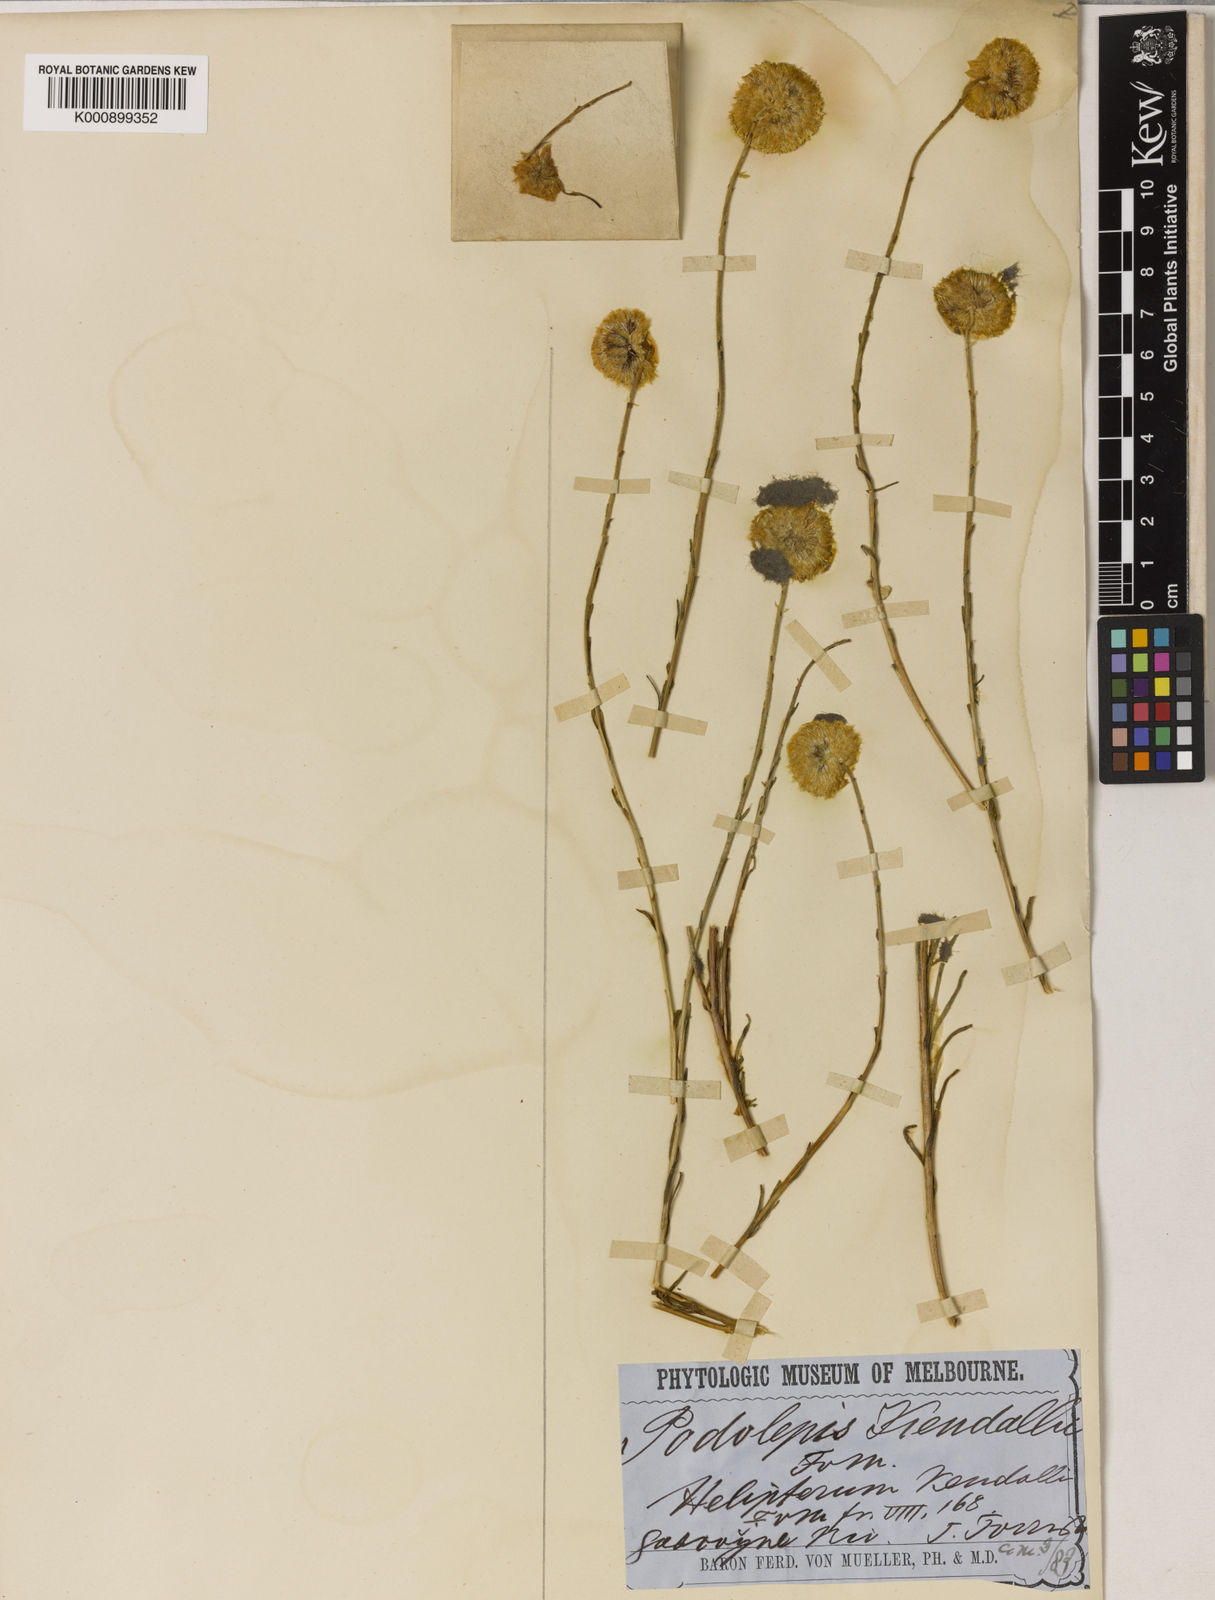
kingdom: Plantae
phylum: Tracheophyta
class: Magnoliopsida
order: Asterales
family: Asteraceae
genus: Walshia
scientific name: Walshia kendallii
